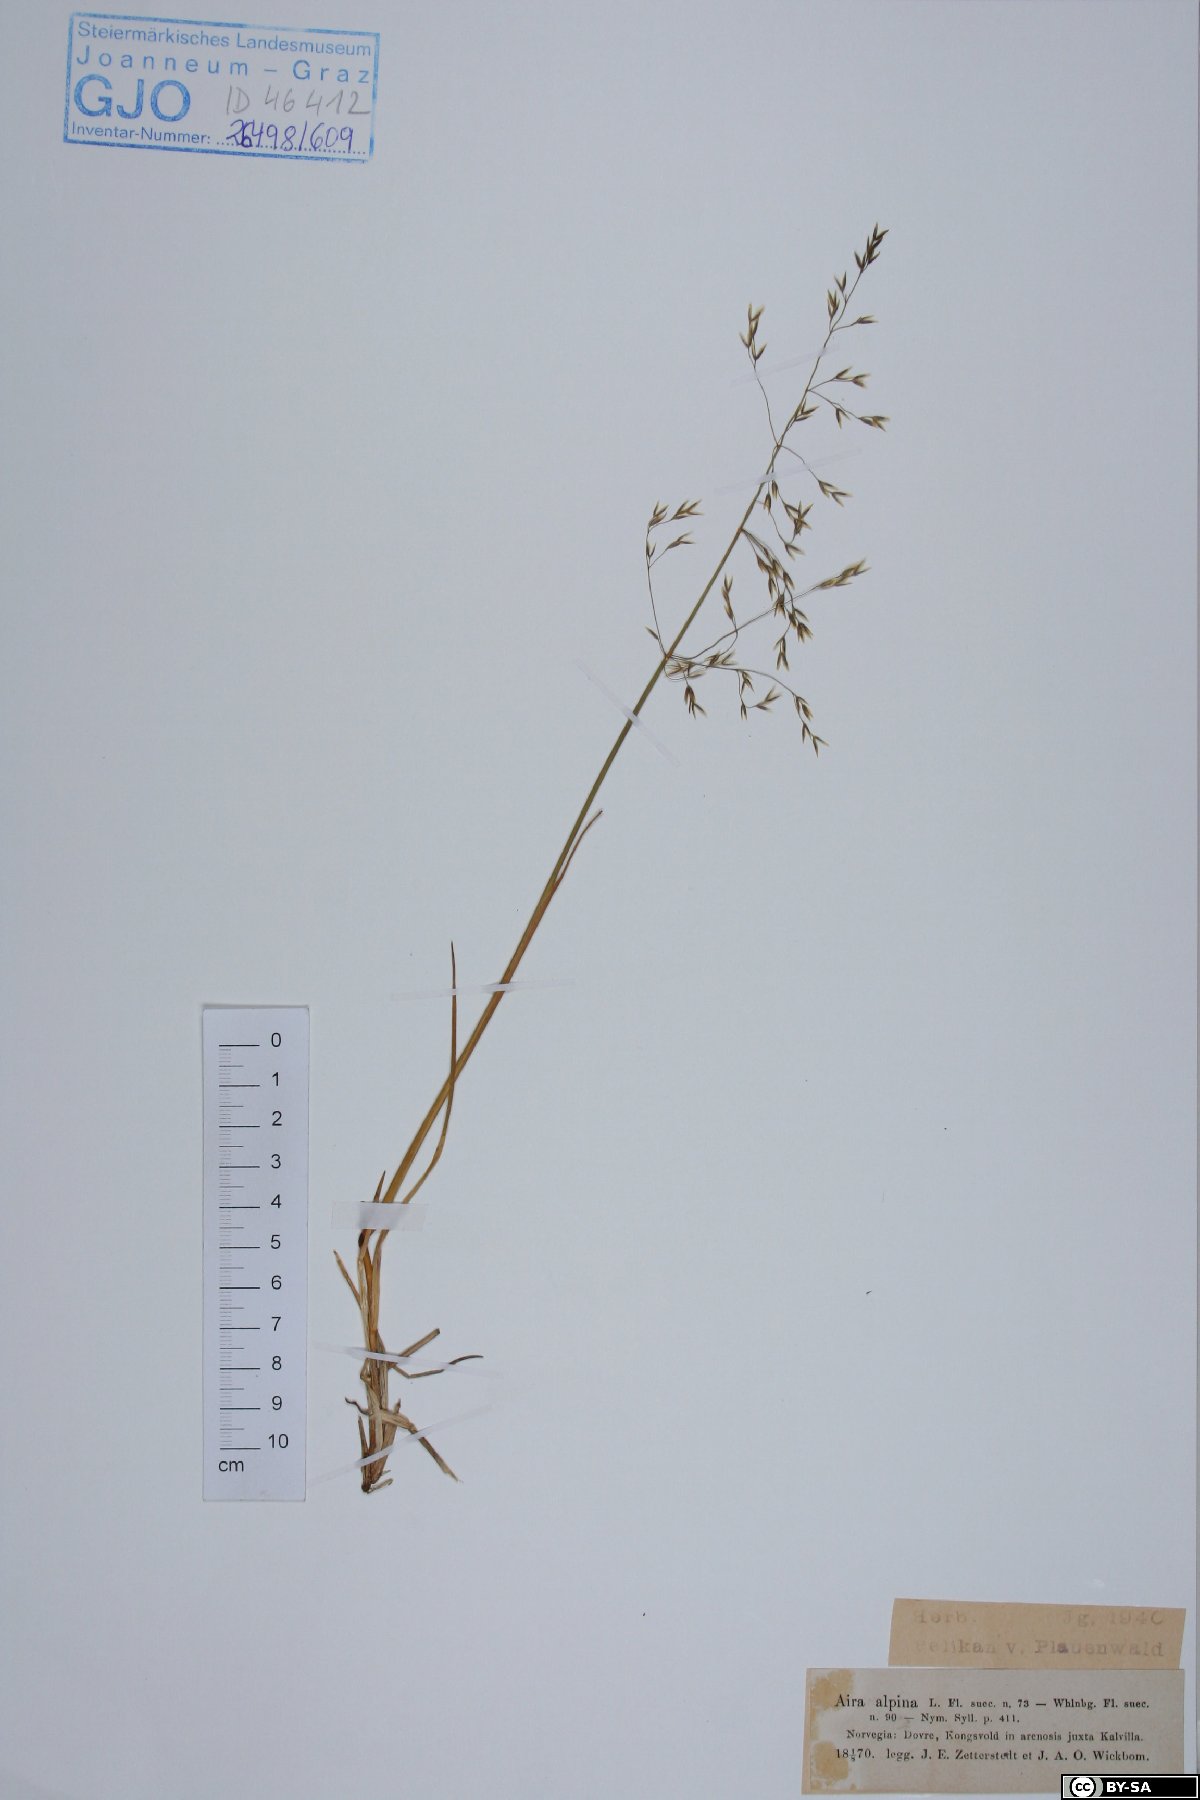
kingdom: Plantae
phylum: Tracheophyta
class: Liliopsida
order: Poales
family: Poaceae
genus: Deschampsia
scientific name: Deschampsia cespitosa
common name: Tufted hair-grass
